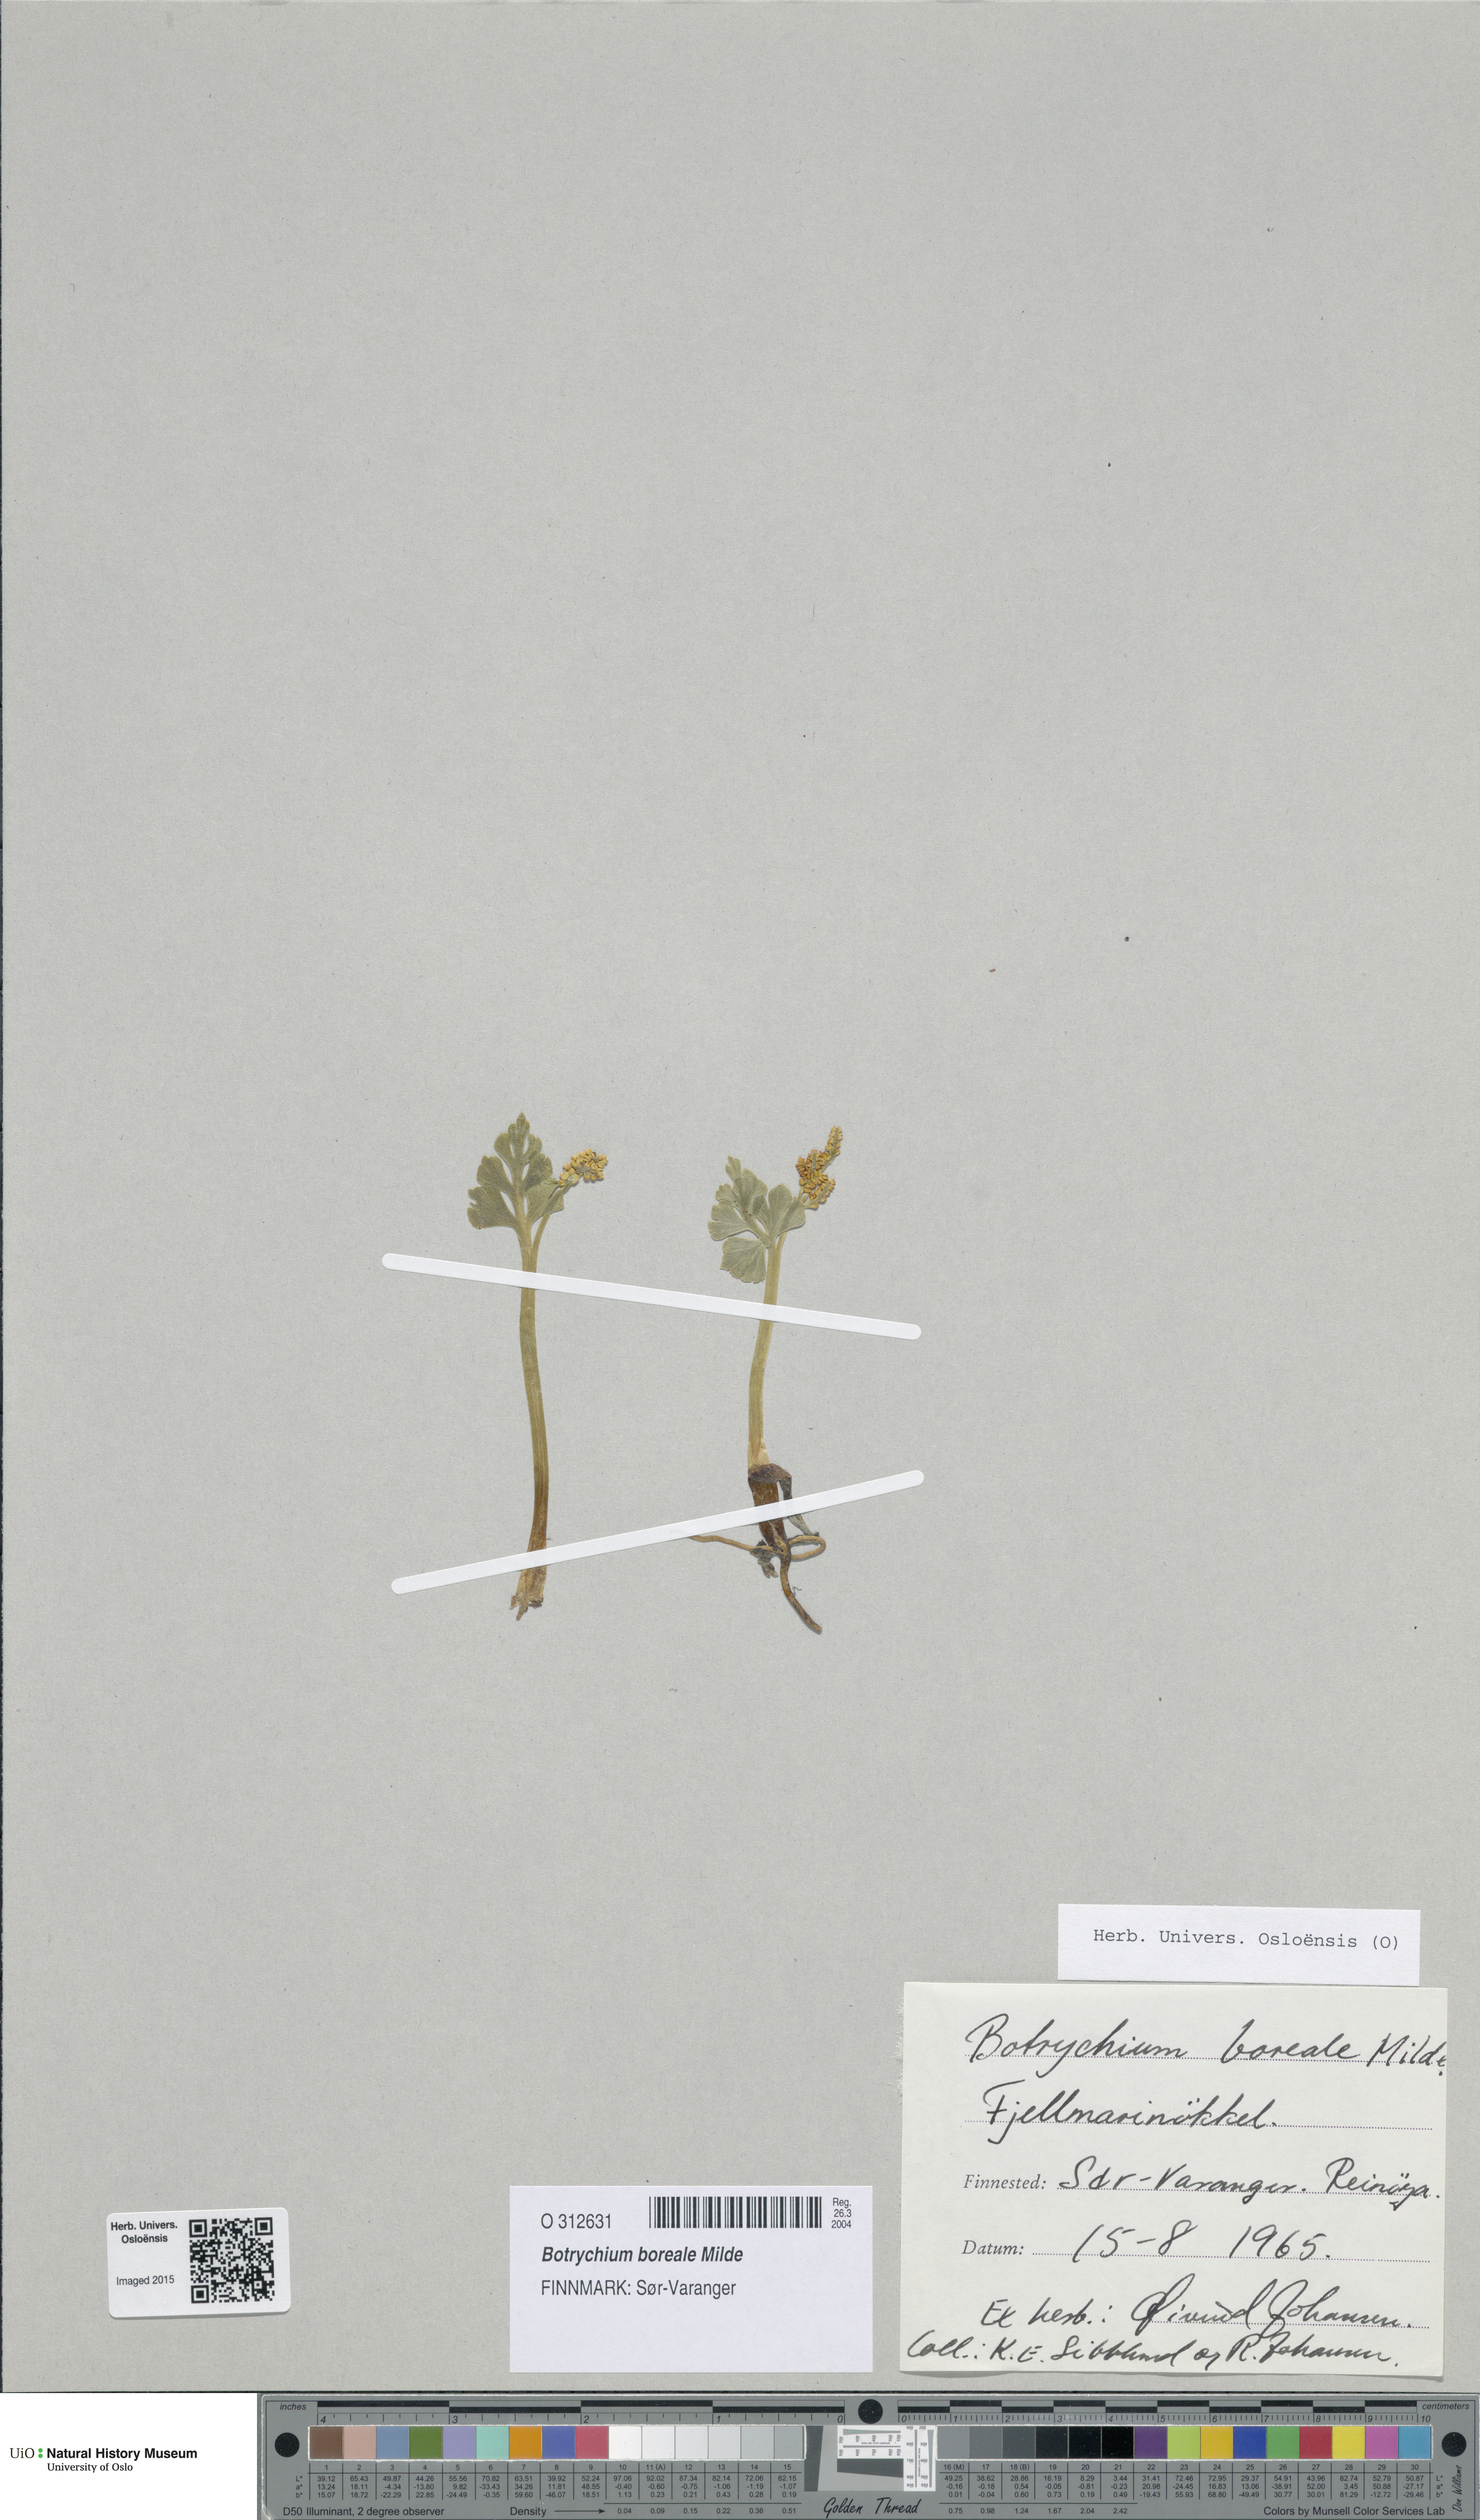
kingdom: Plantae
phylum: Tracheophyta
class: Polypodiopsida
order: Ophioglossales
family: Ophioglossaceae
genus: Botrychium
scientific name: Botrychium boreale
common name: Boreal moonwort
